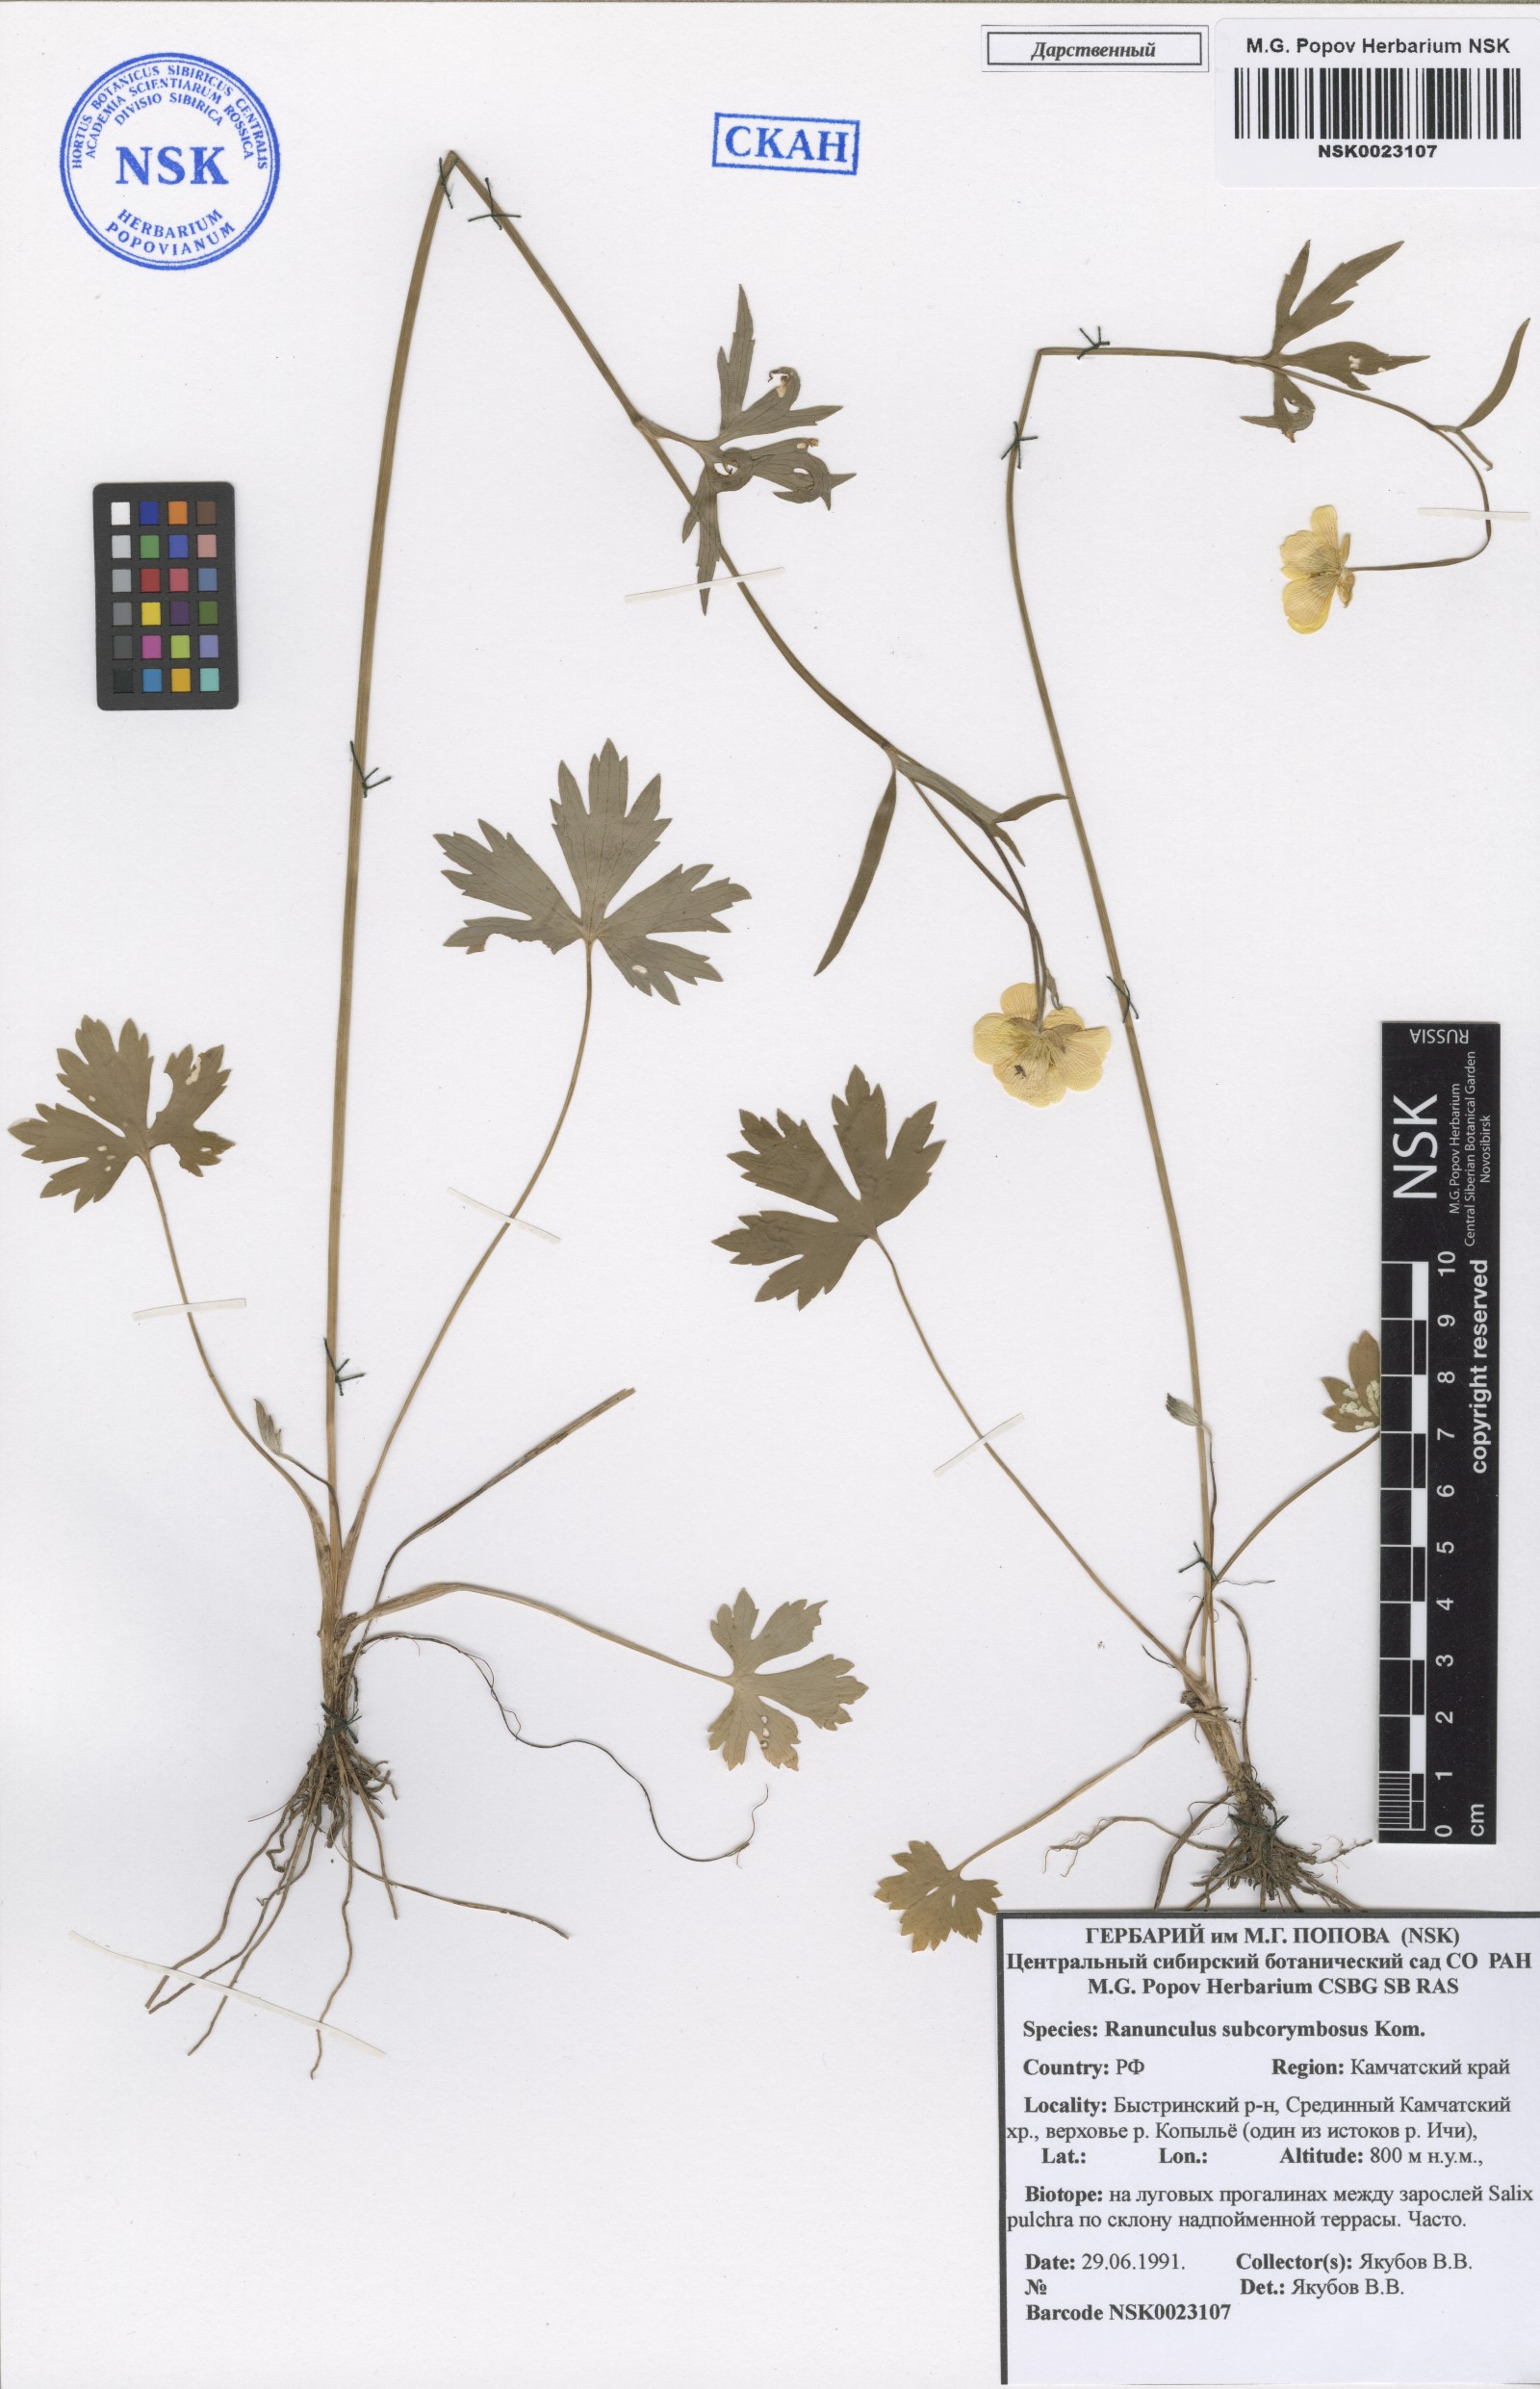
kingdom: Plantae
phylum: Tracheophyta
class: Magnoliopsida
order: Ranunculales
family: Ranunculaceae
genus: Ranunculus
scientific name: Ranunculus subcorymbosus
